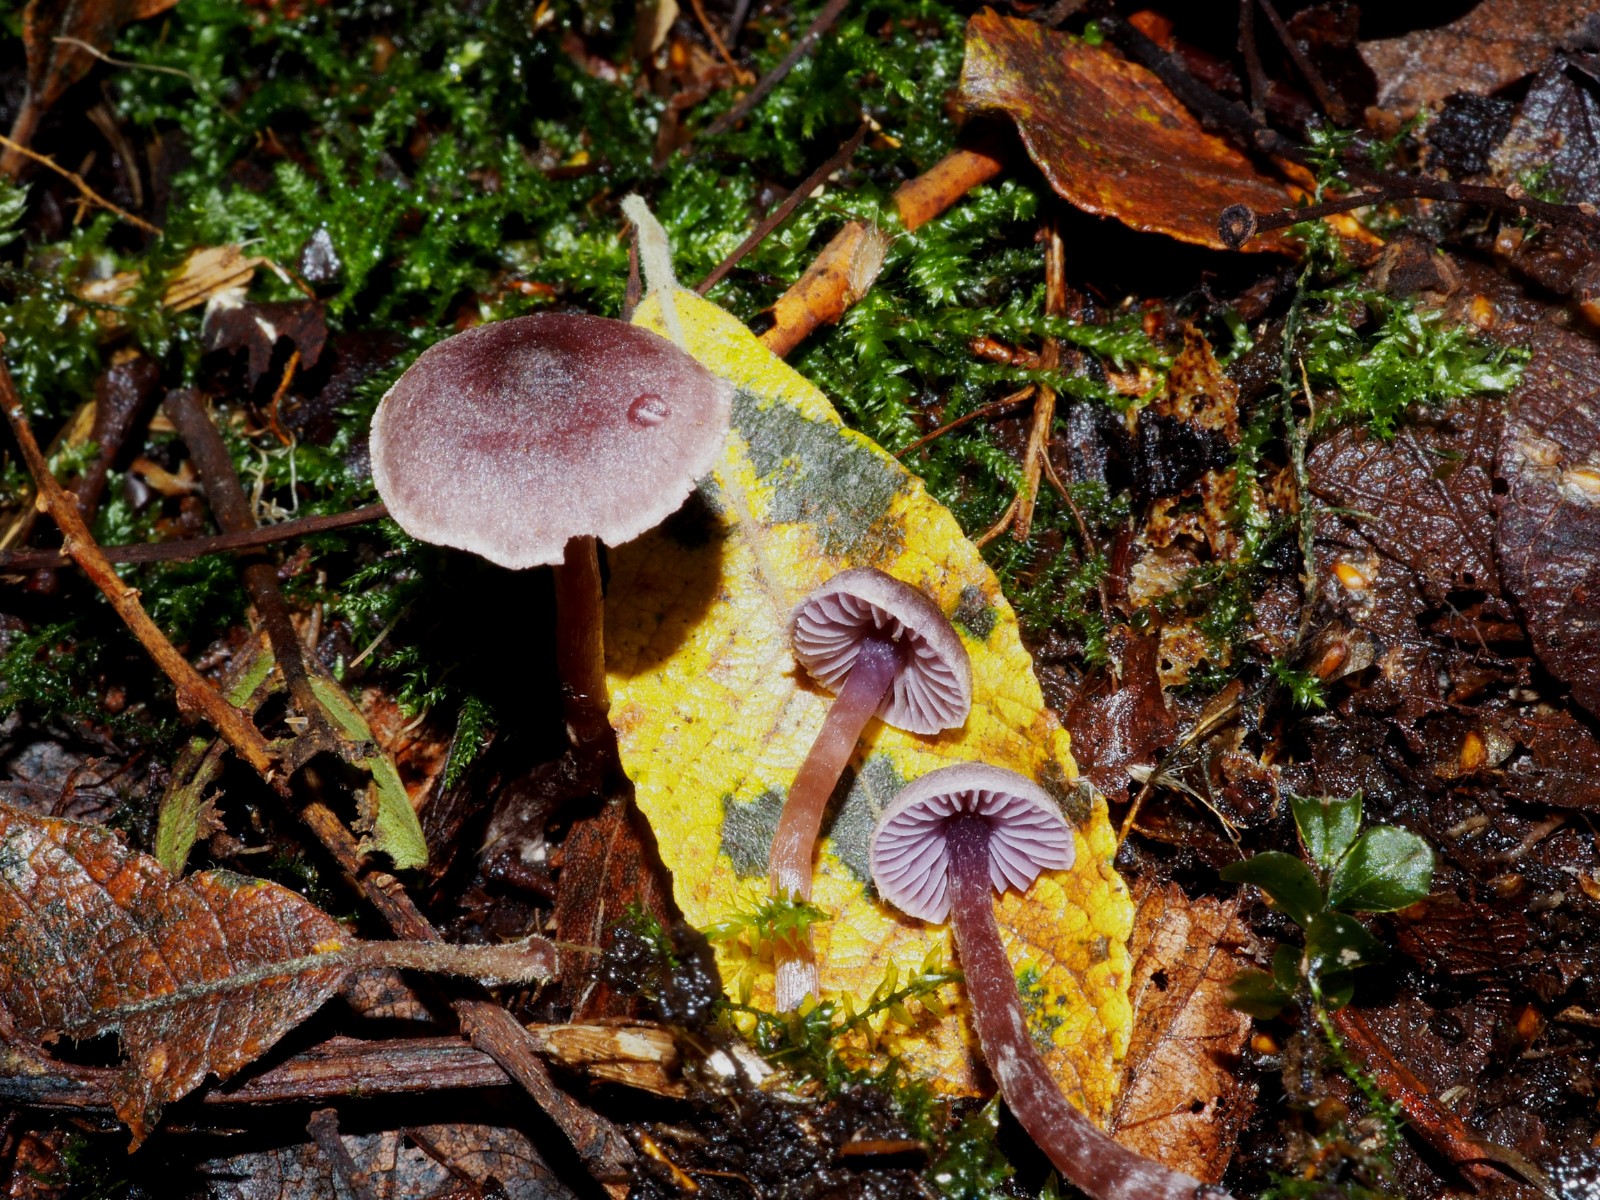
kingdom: Fungi
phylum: Basidiomycota
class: Agaricomycetes
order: Agaricales
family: Cortinariaceae
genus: Cortinarius
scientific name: Cortinarius bibulus
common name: smuk slørhat
